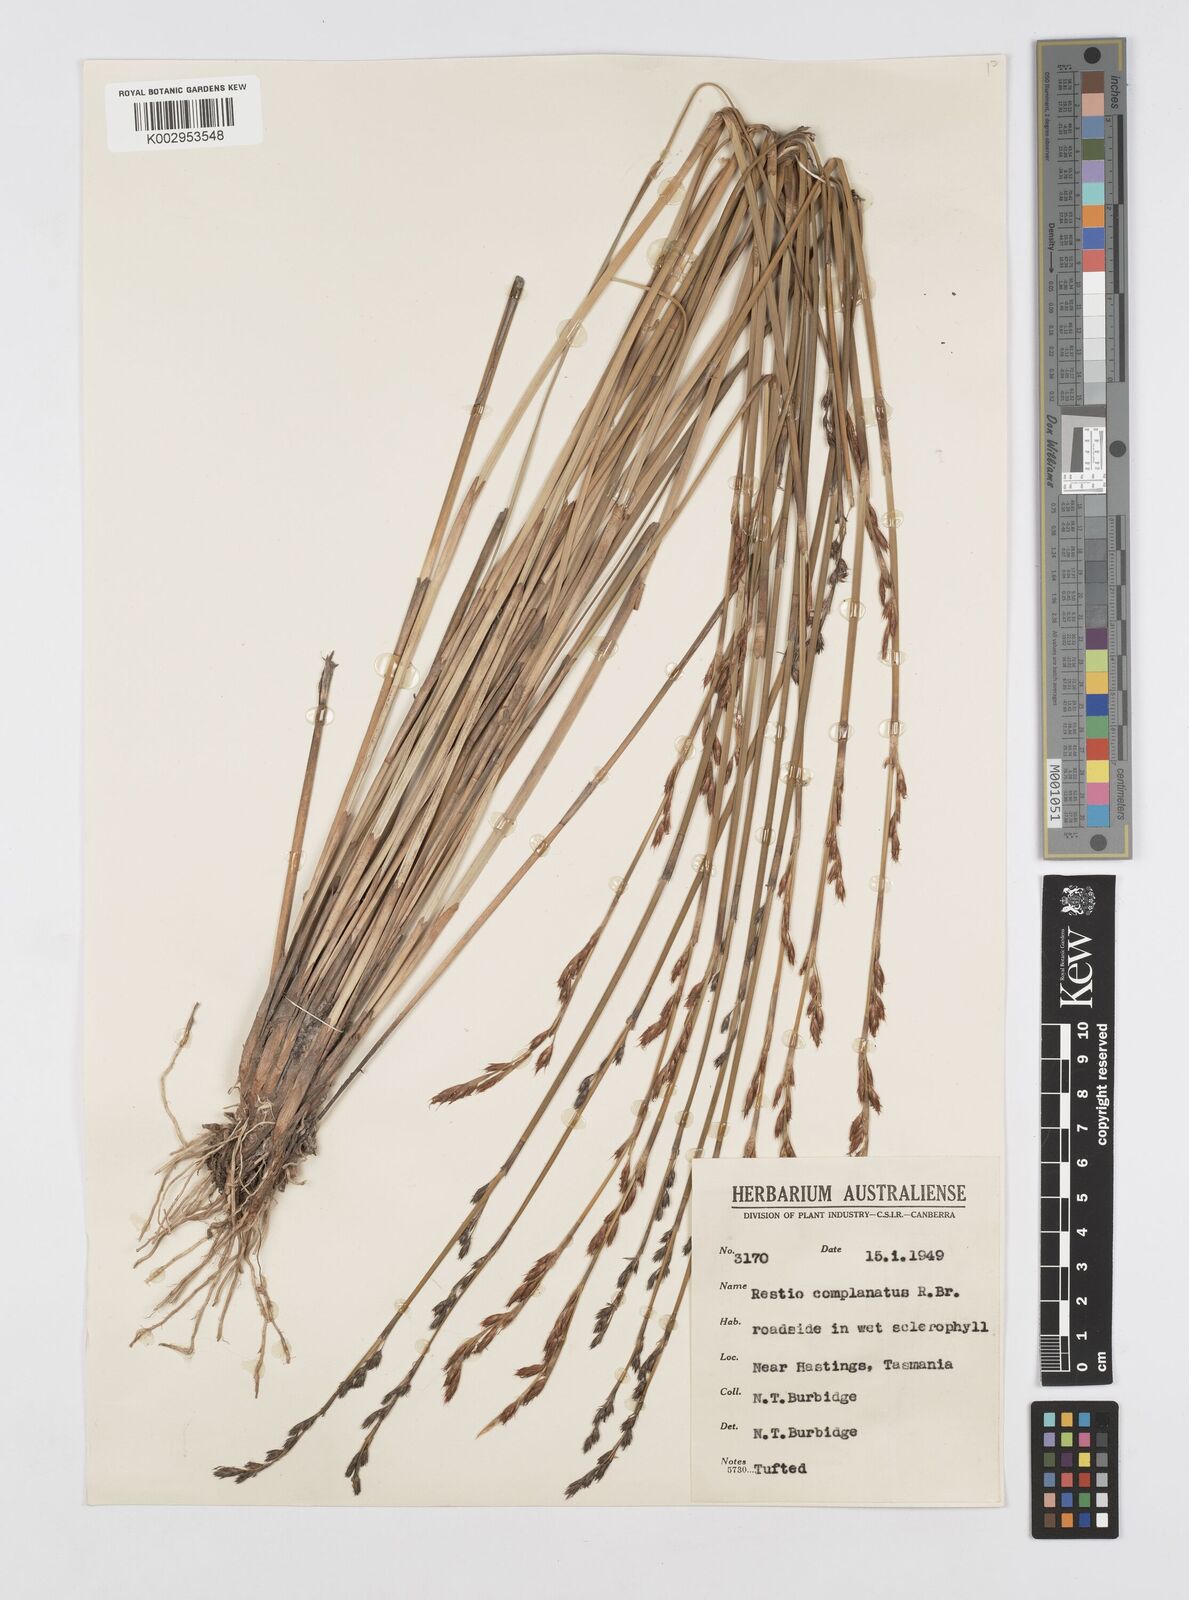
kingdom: Plantae
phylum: Tracheophyta
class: Liliopsida
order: Poales
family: Restionaceae
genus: Eurychorda
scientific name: Eurychorda complanata
